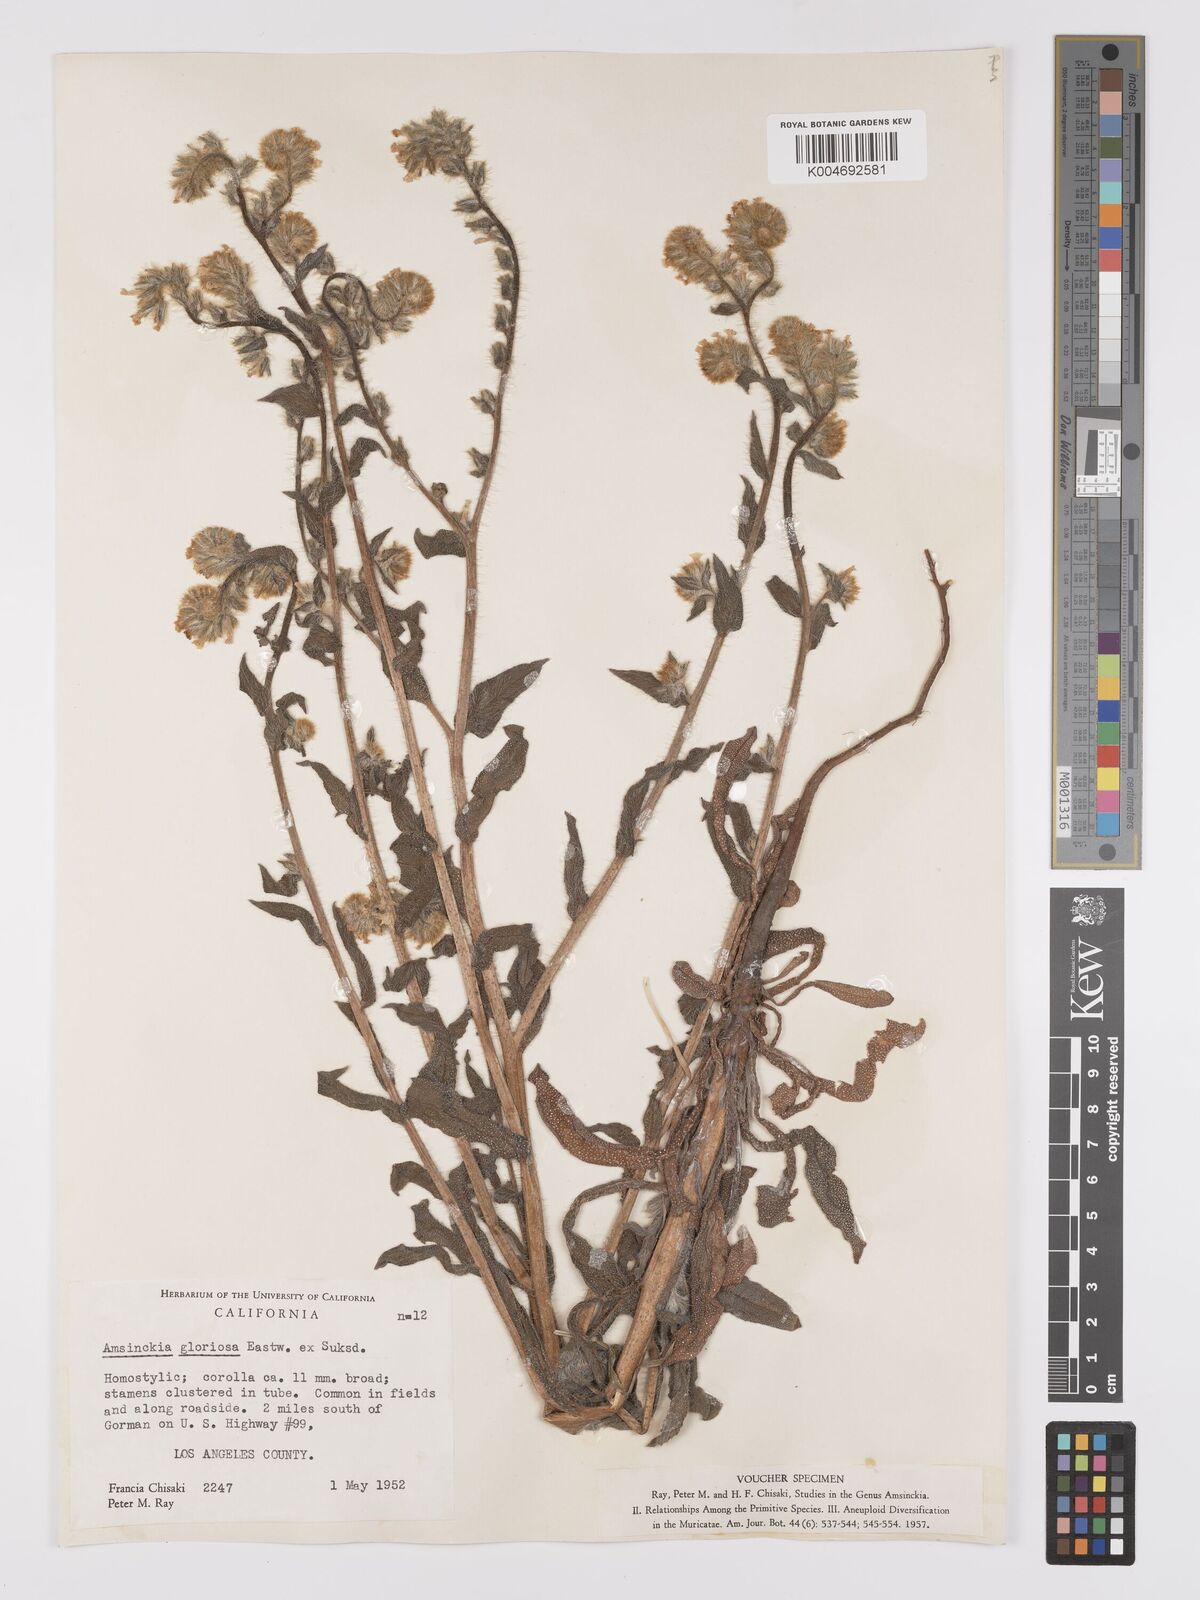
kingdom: Plantae
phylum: Tracheophyta
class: Magnoliopsida
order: Boraginales
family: Boraginaceae
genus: Amsinckia
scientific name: Amsinckia tessellata
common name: Tessellate fiddleneck
